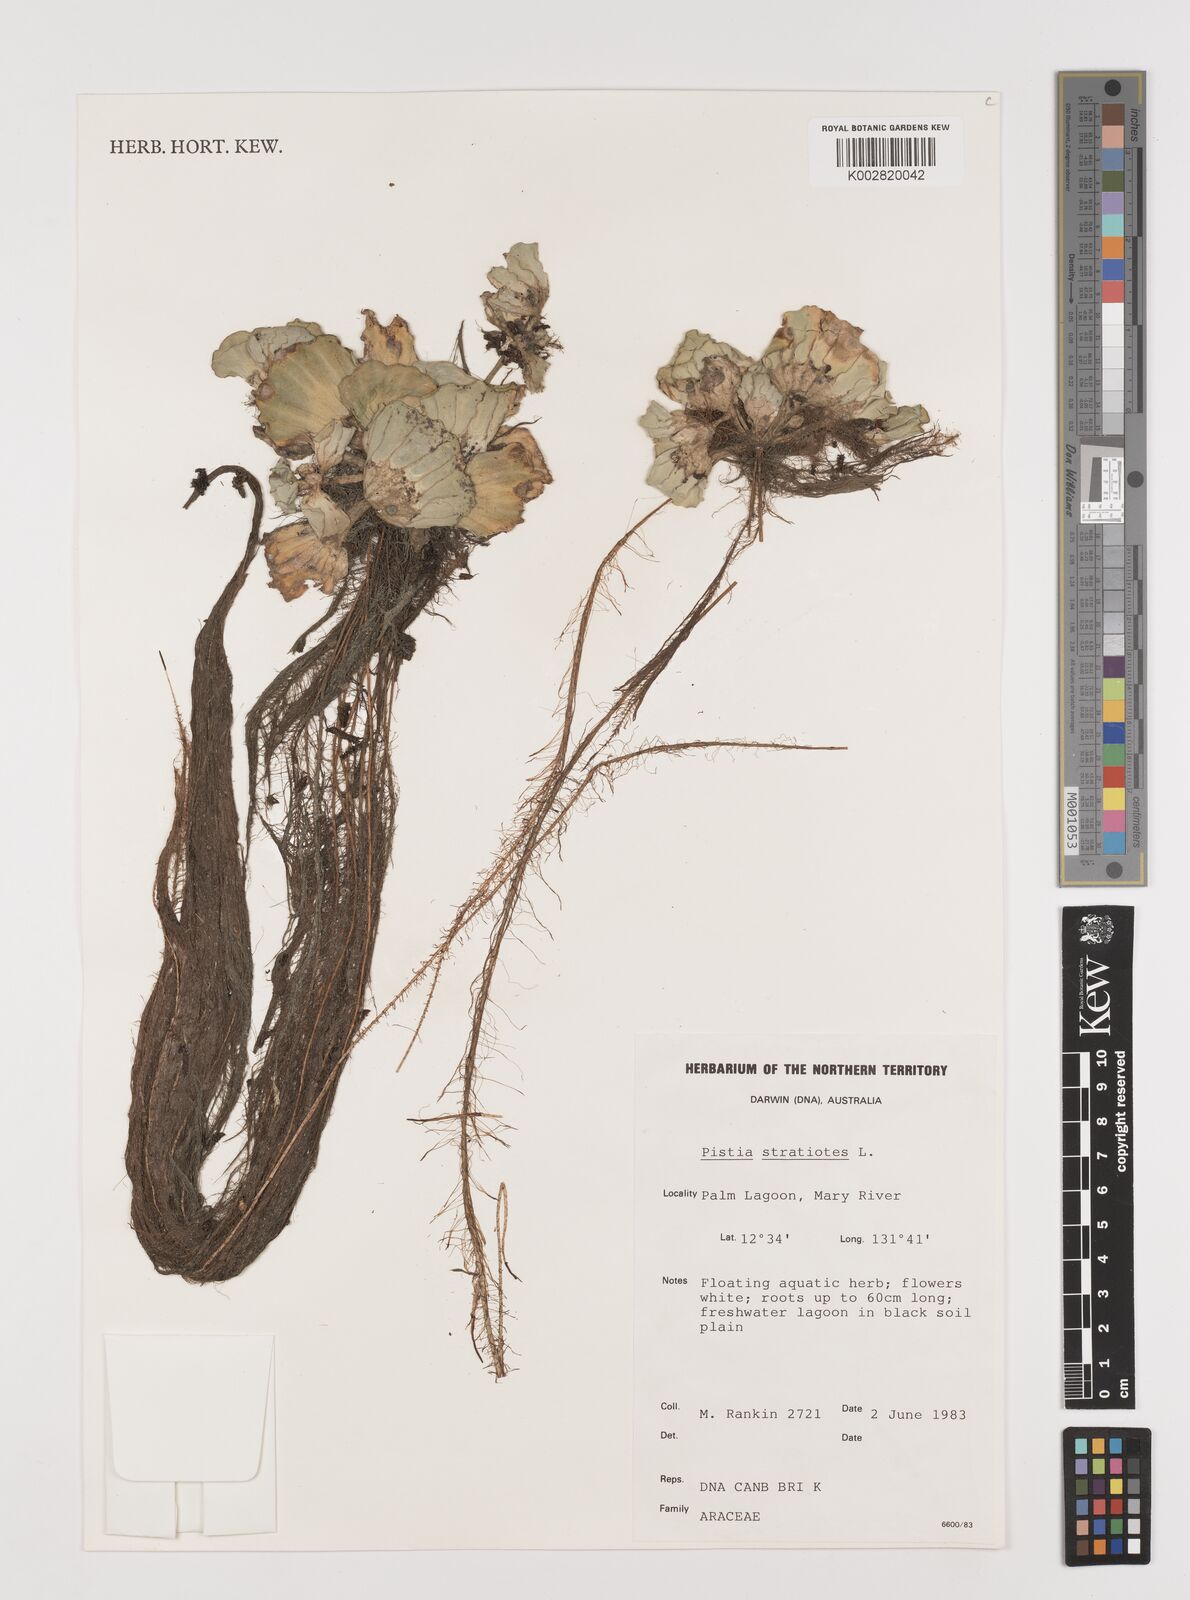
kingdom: Plantae
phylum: Tracheophyta
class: Liliopsida
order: Alismatales
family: Araceae
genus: Pistia
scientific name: Pistia stratiotes
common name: Water lettuce
